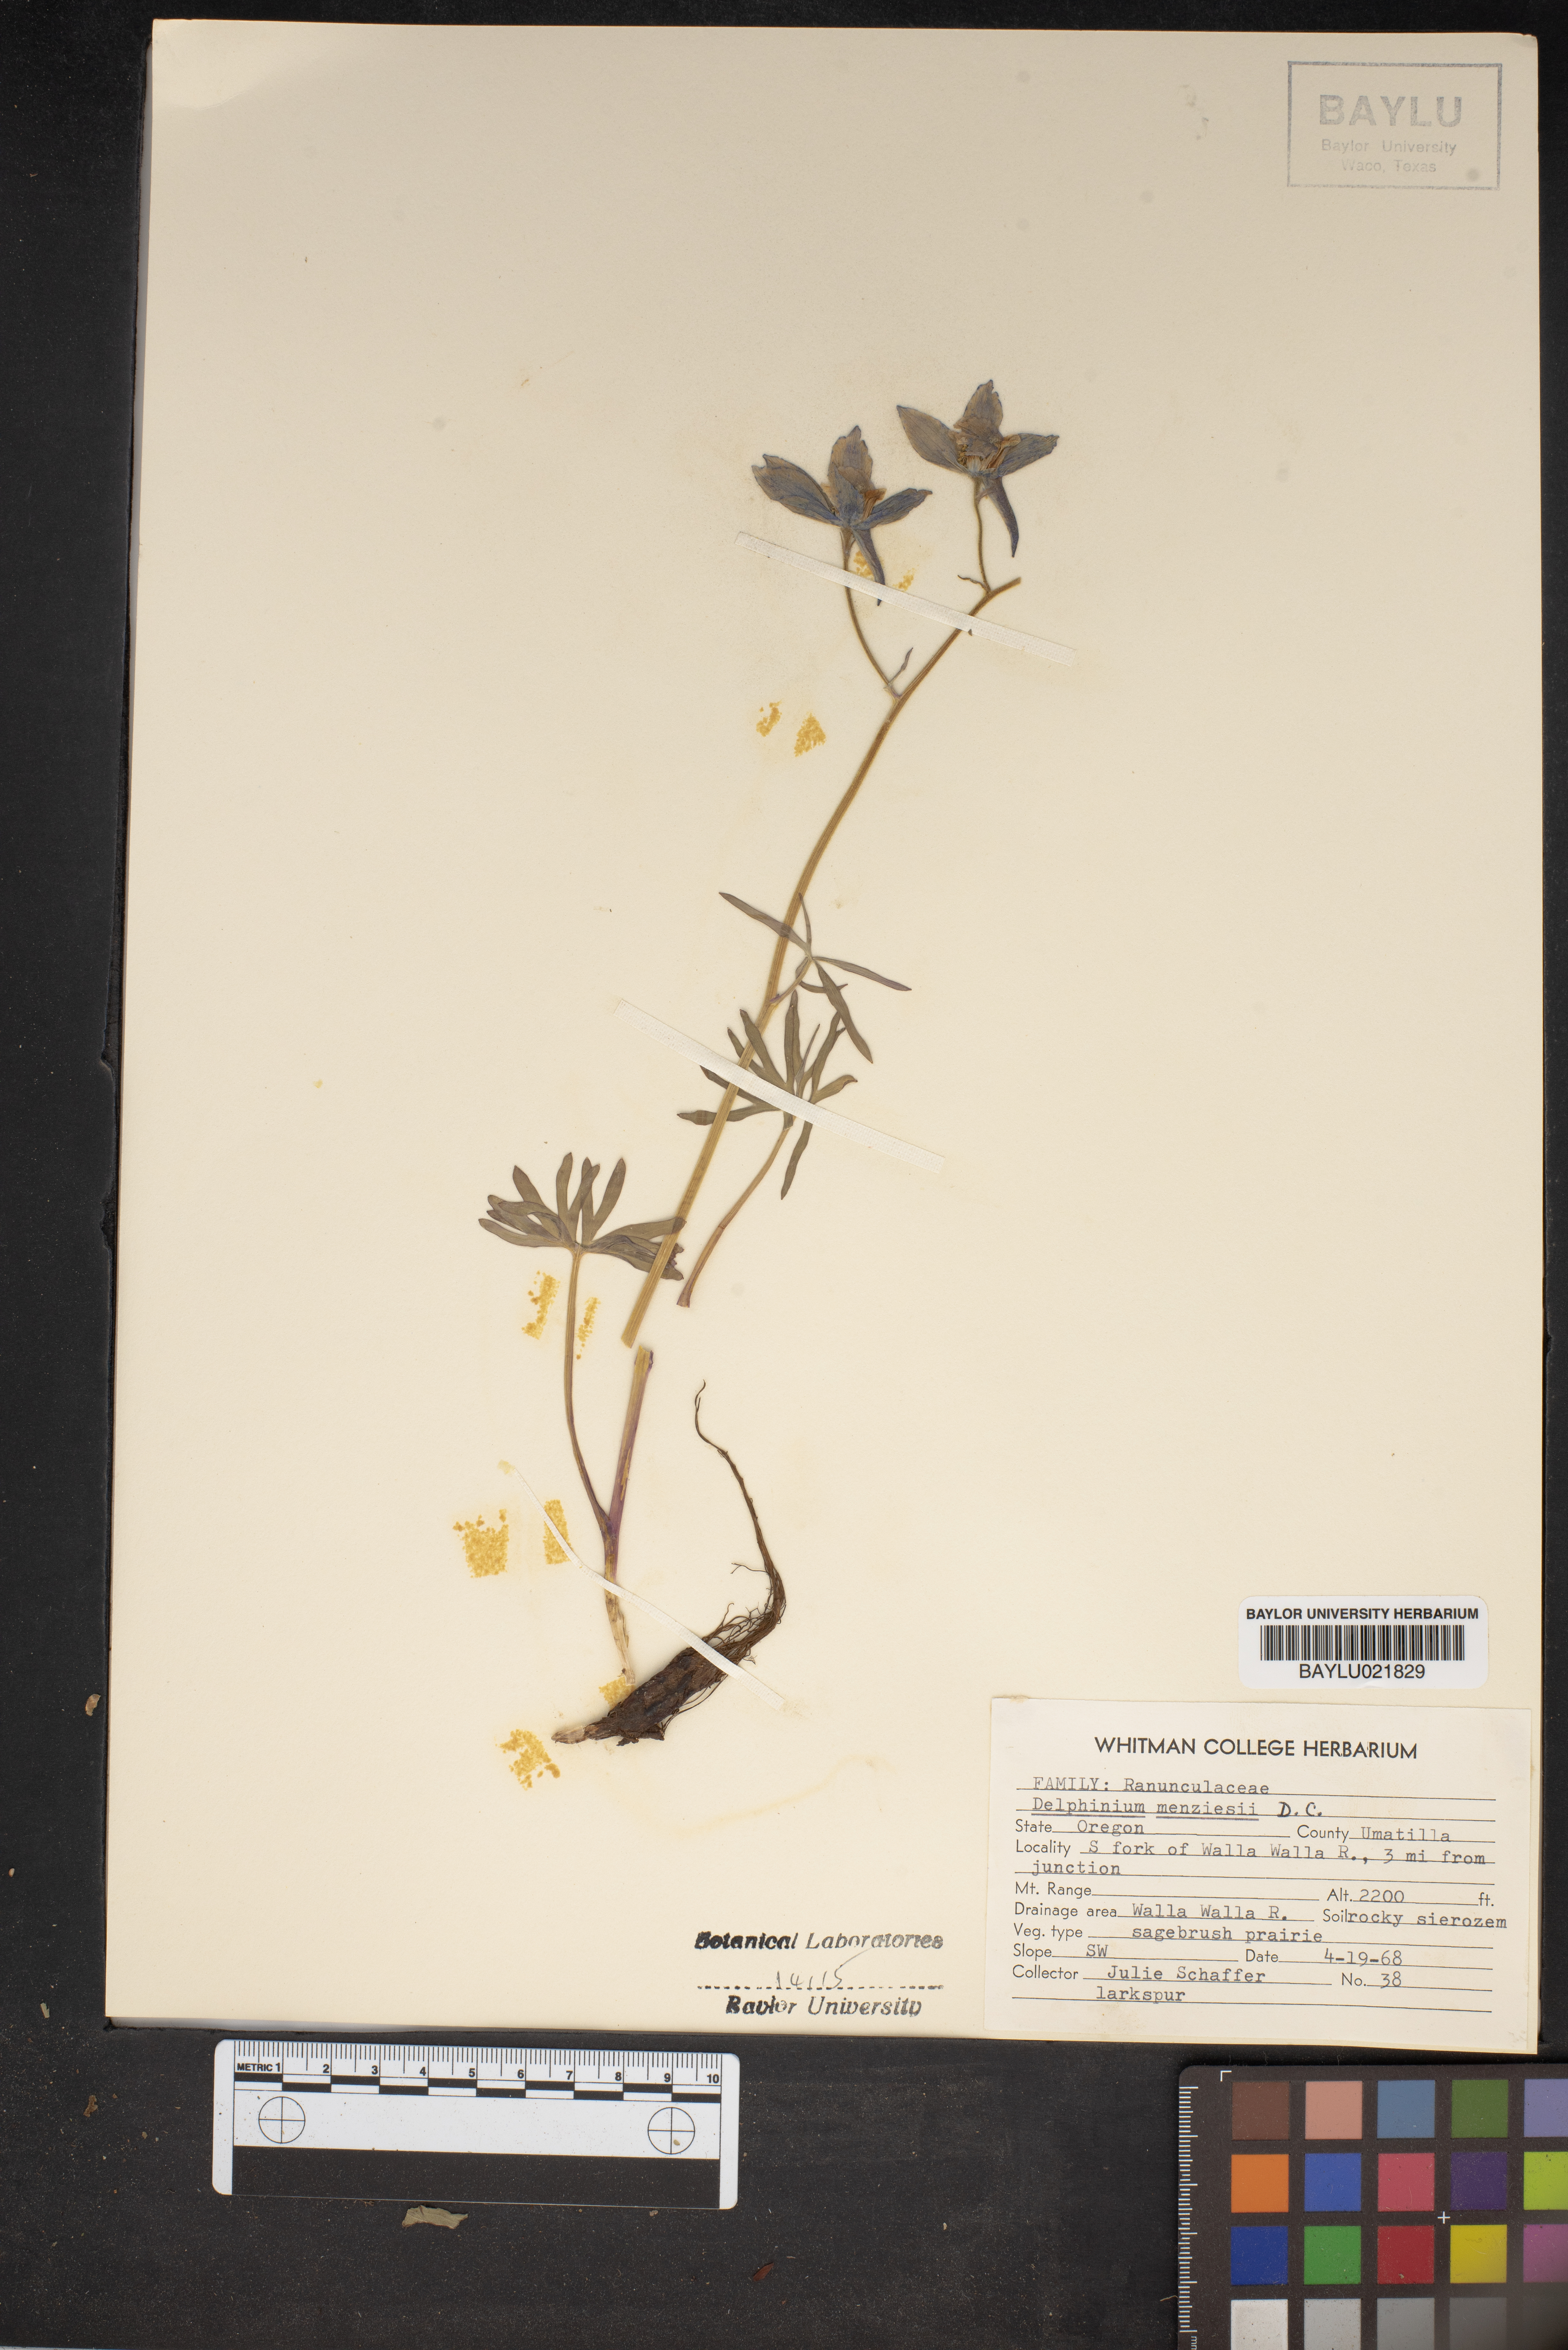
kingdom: Plantae
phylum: Tracheophyta
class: Magnoliopsida
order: Ranunculales
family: Ranunculaceae
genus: Delphinium
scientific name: Delphinium menziesii
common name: Menzies's larkspur
